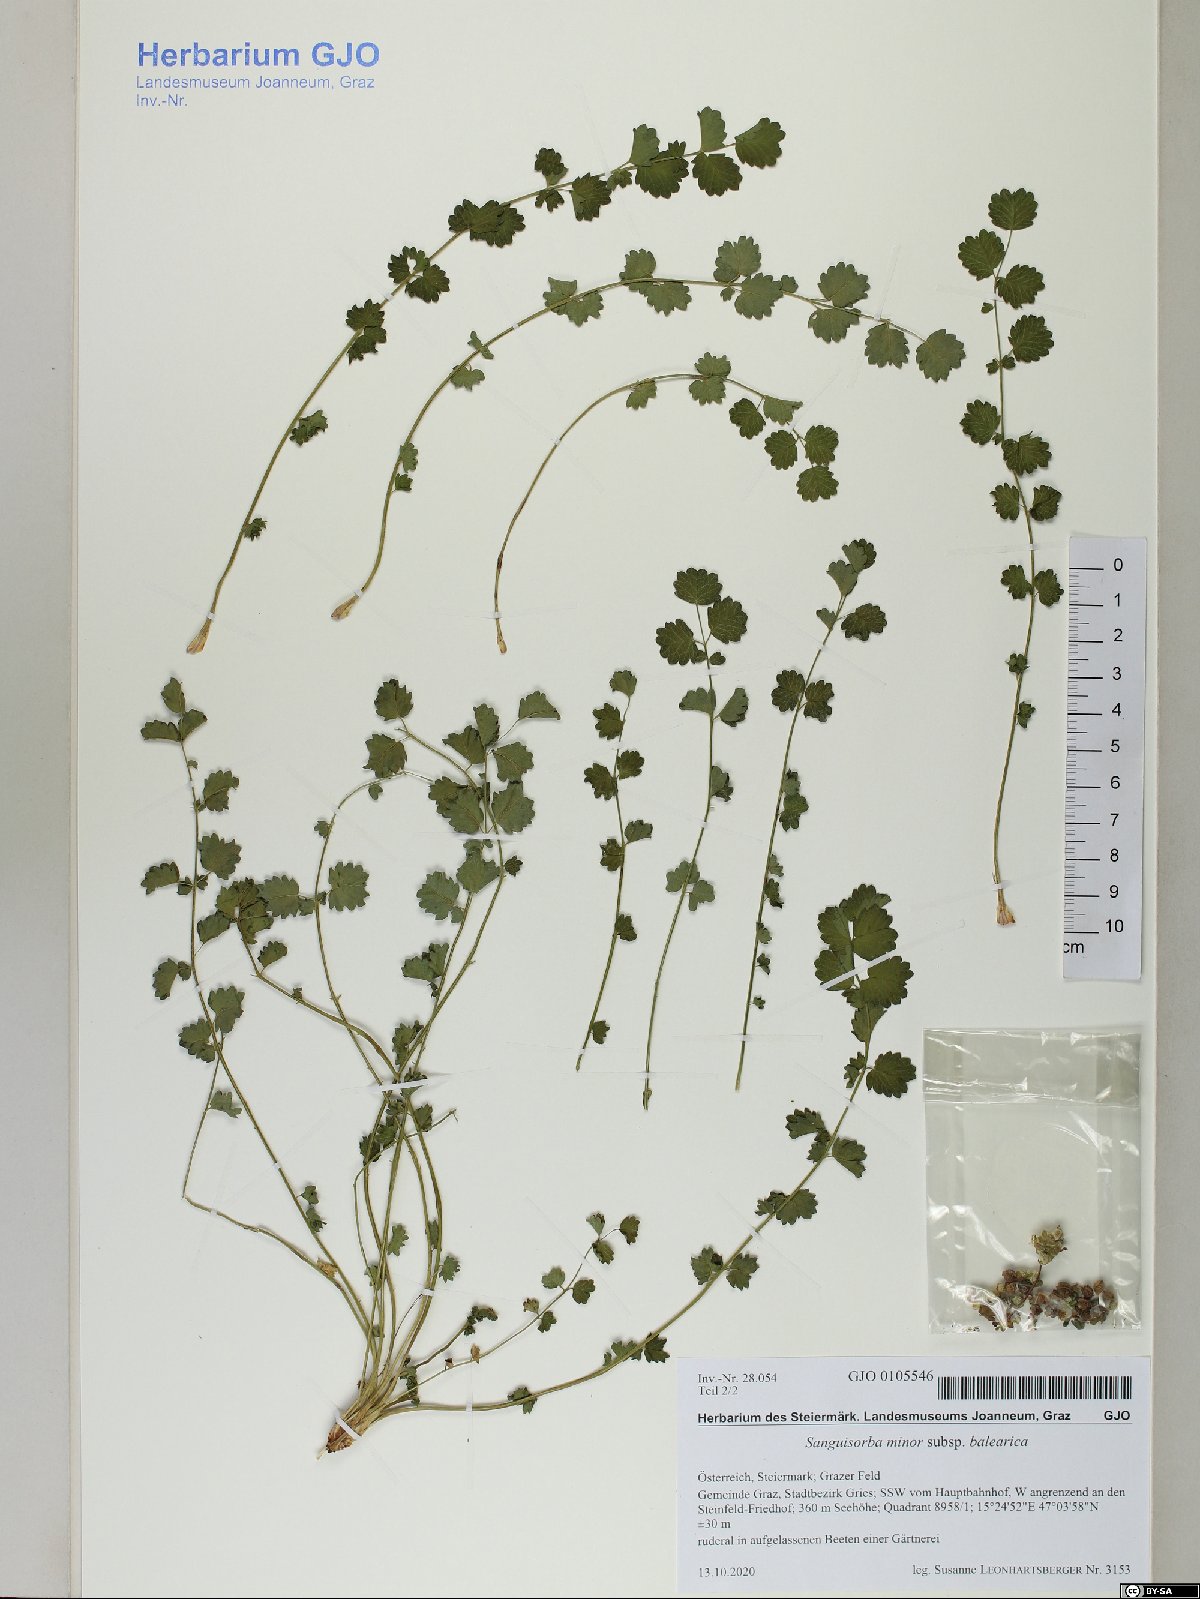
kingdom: Plantae
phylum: Tracheophyta
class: Magnoliopsida
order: Rosales
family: Rosaceae
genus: Poterium
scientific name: Poterium sanguisorba
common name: Salad burnet
